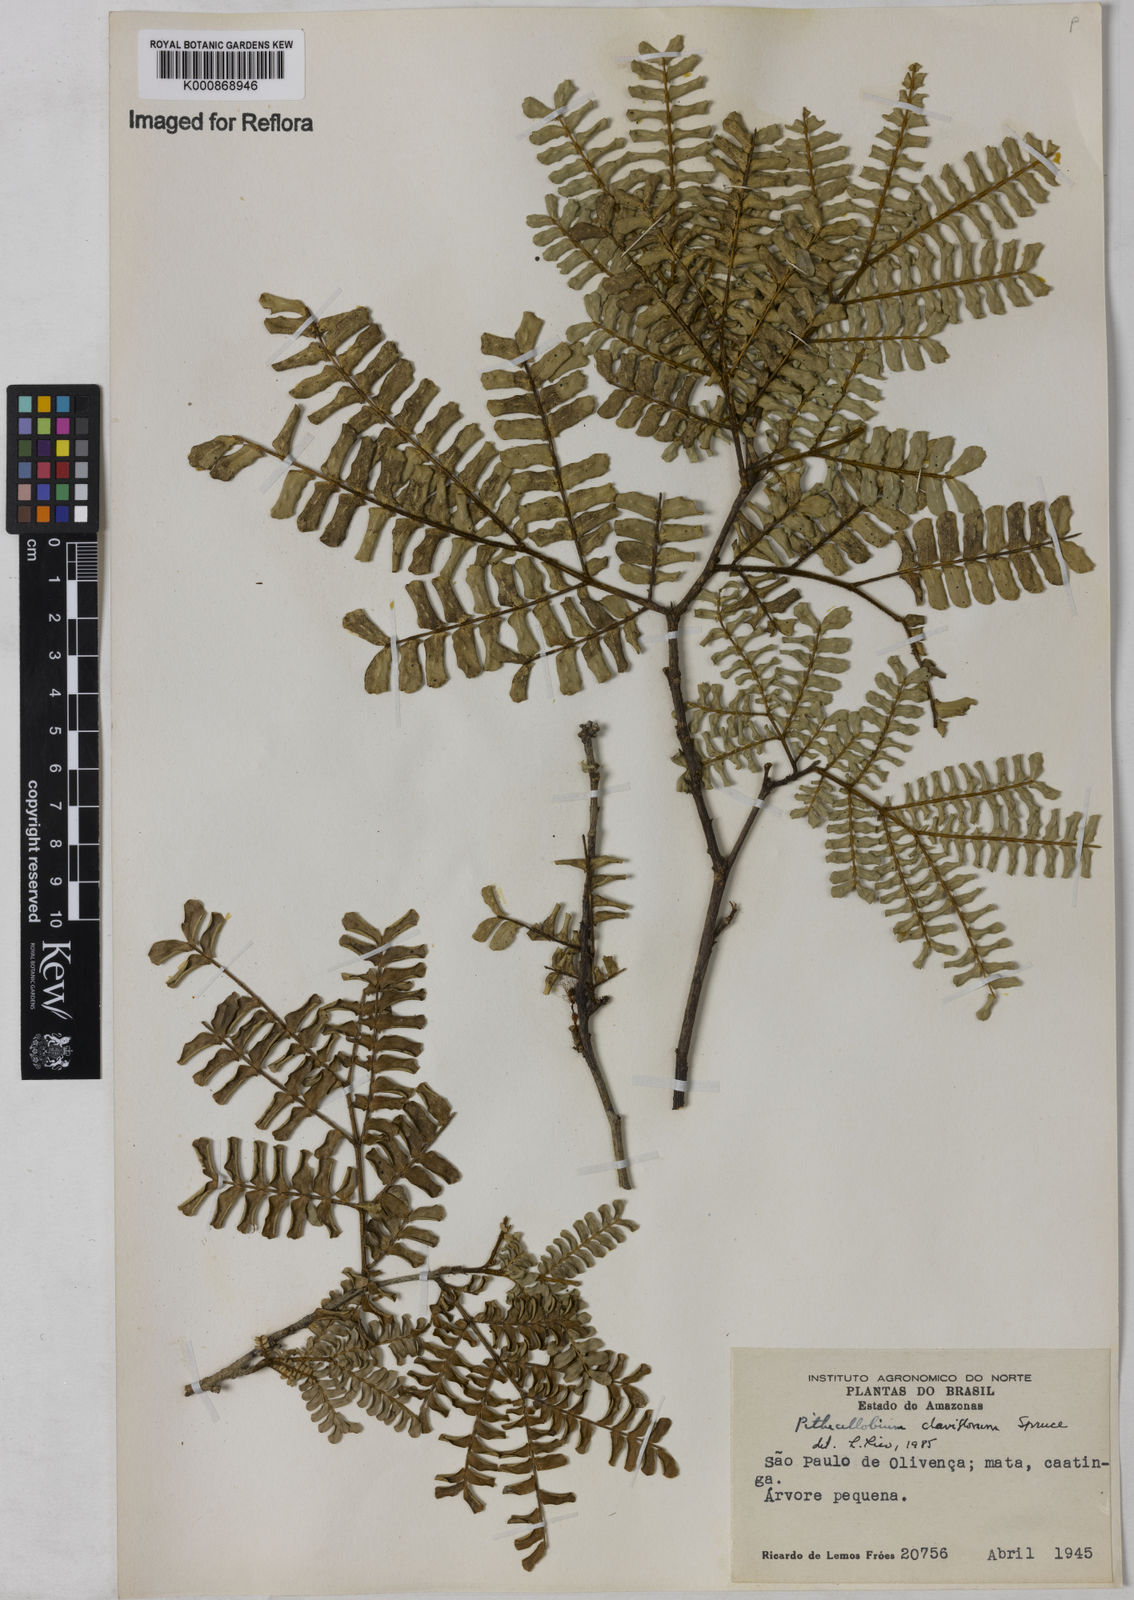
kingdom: Plantae
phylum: Tracheophyta
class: Magnoliopsida
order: Fabales
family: Fabaceae
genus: Zygia
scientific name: Zygia claviflora
